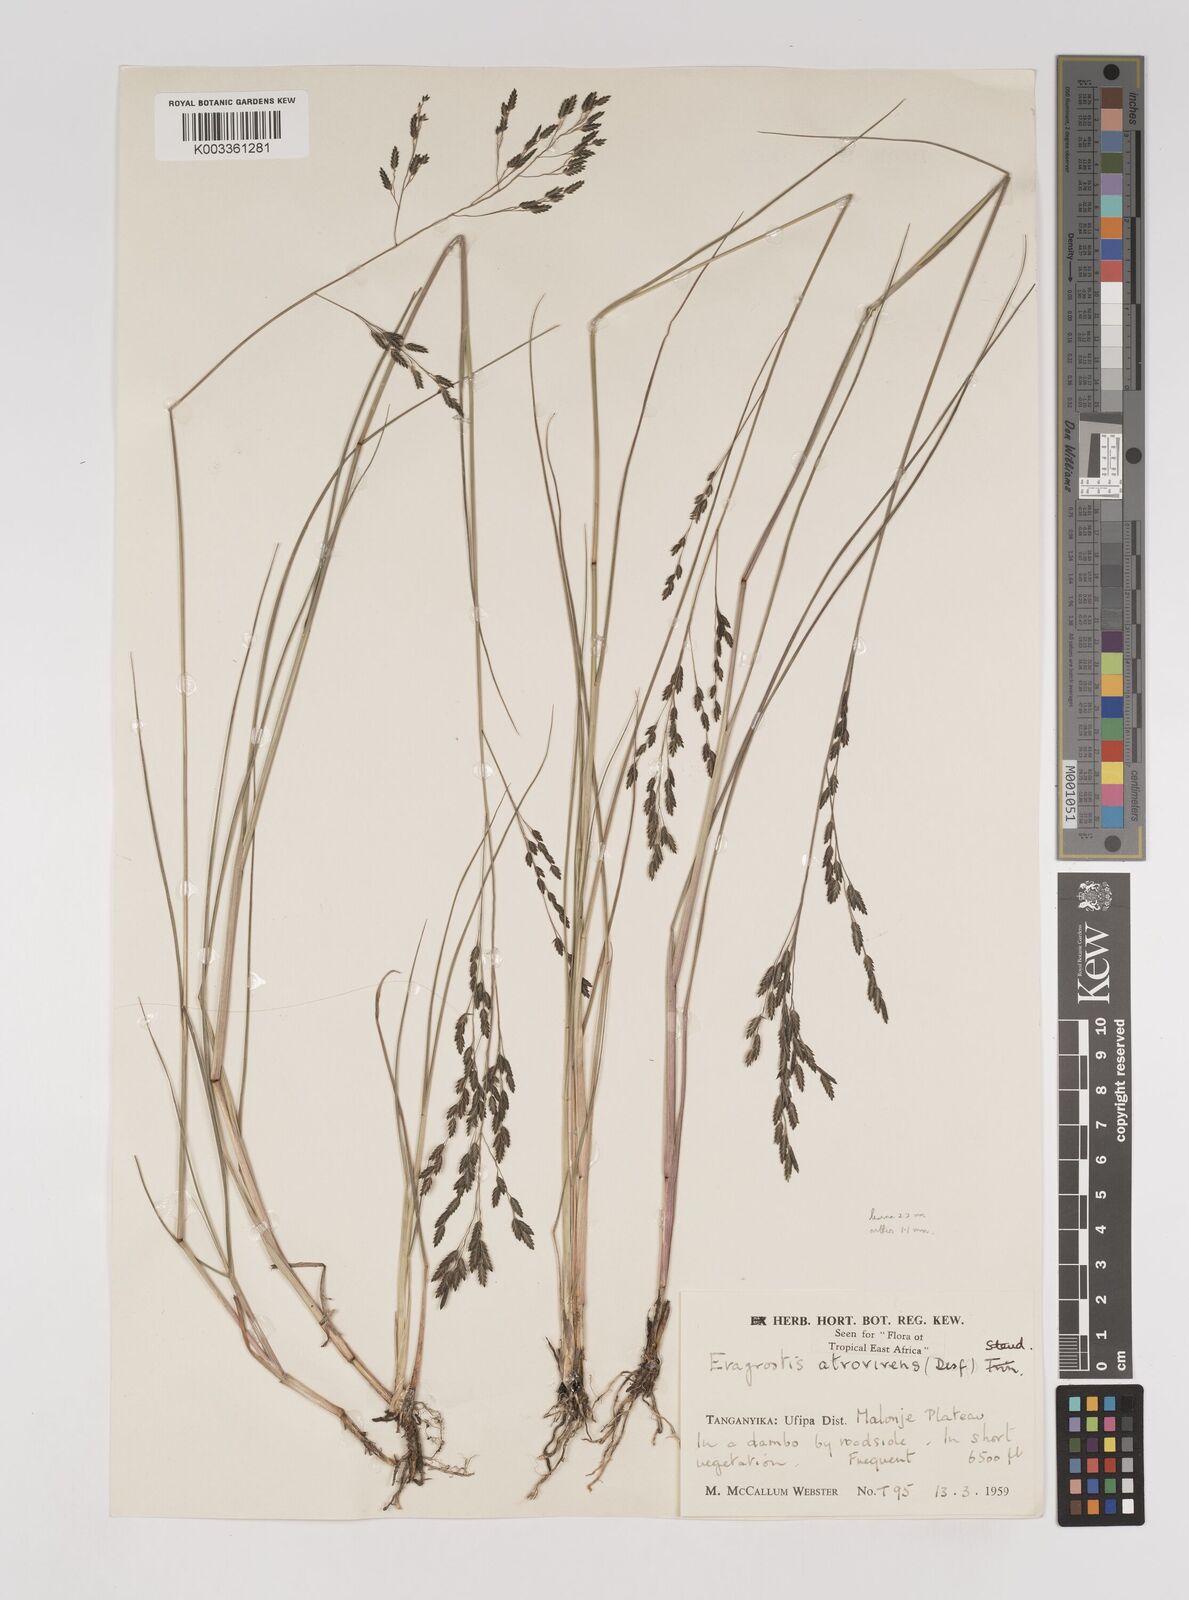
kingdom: Plantae
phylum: Tracheophyta
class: Liliopsida
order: Poales
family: Poaceae
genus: Eragrostis
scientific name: Eragrostis papposa
